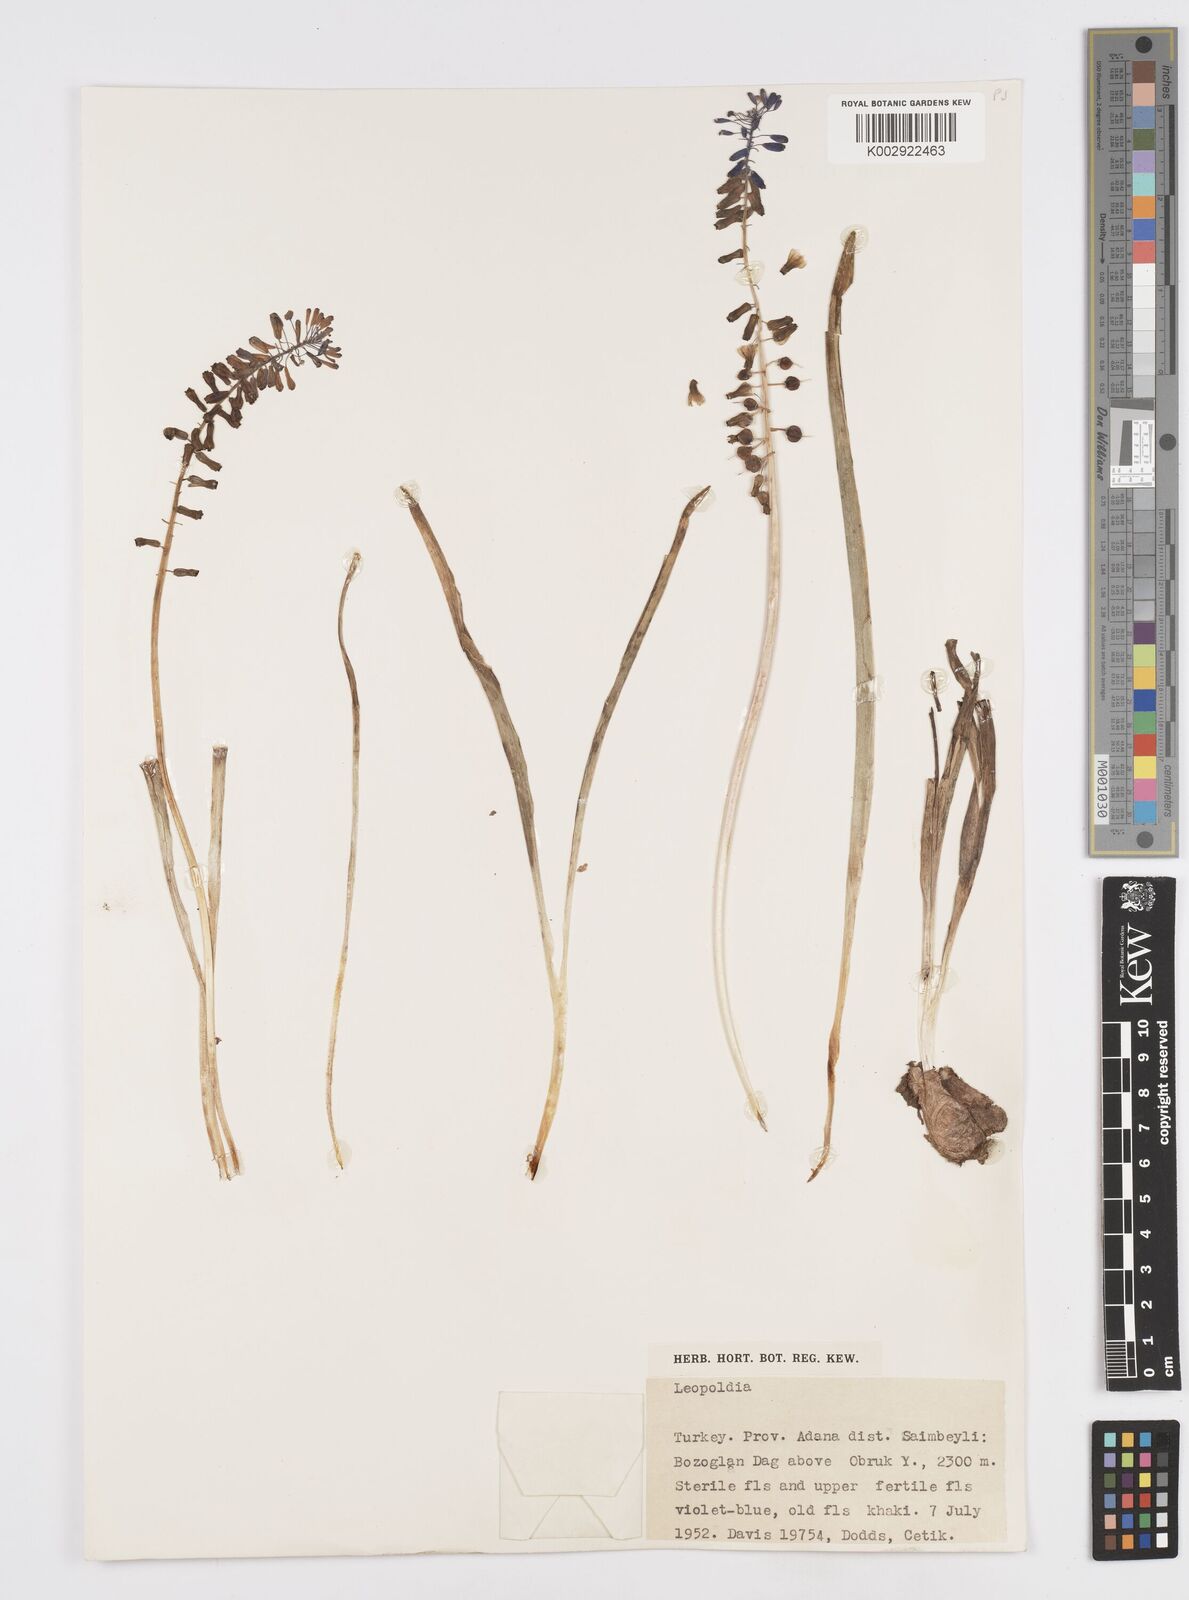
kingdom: Plantae
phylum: Tracheophyta
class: Liliopsida
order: Asparagales
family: Asparagaceae
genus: Muscari
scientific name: Muscari tenuiflorum
